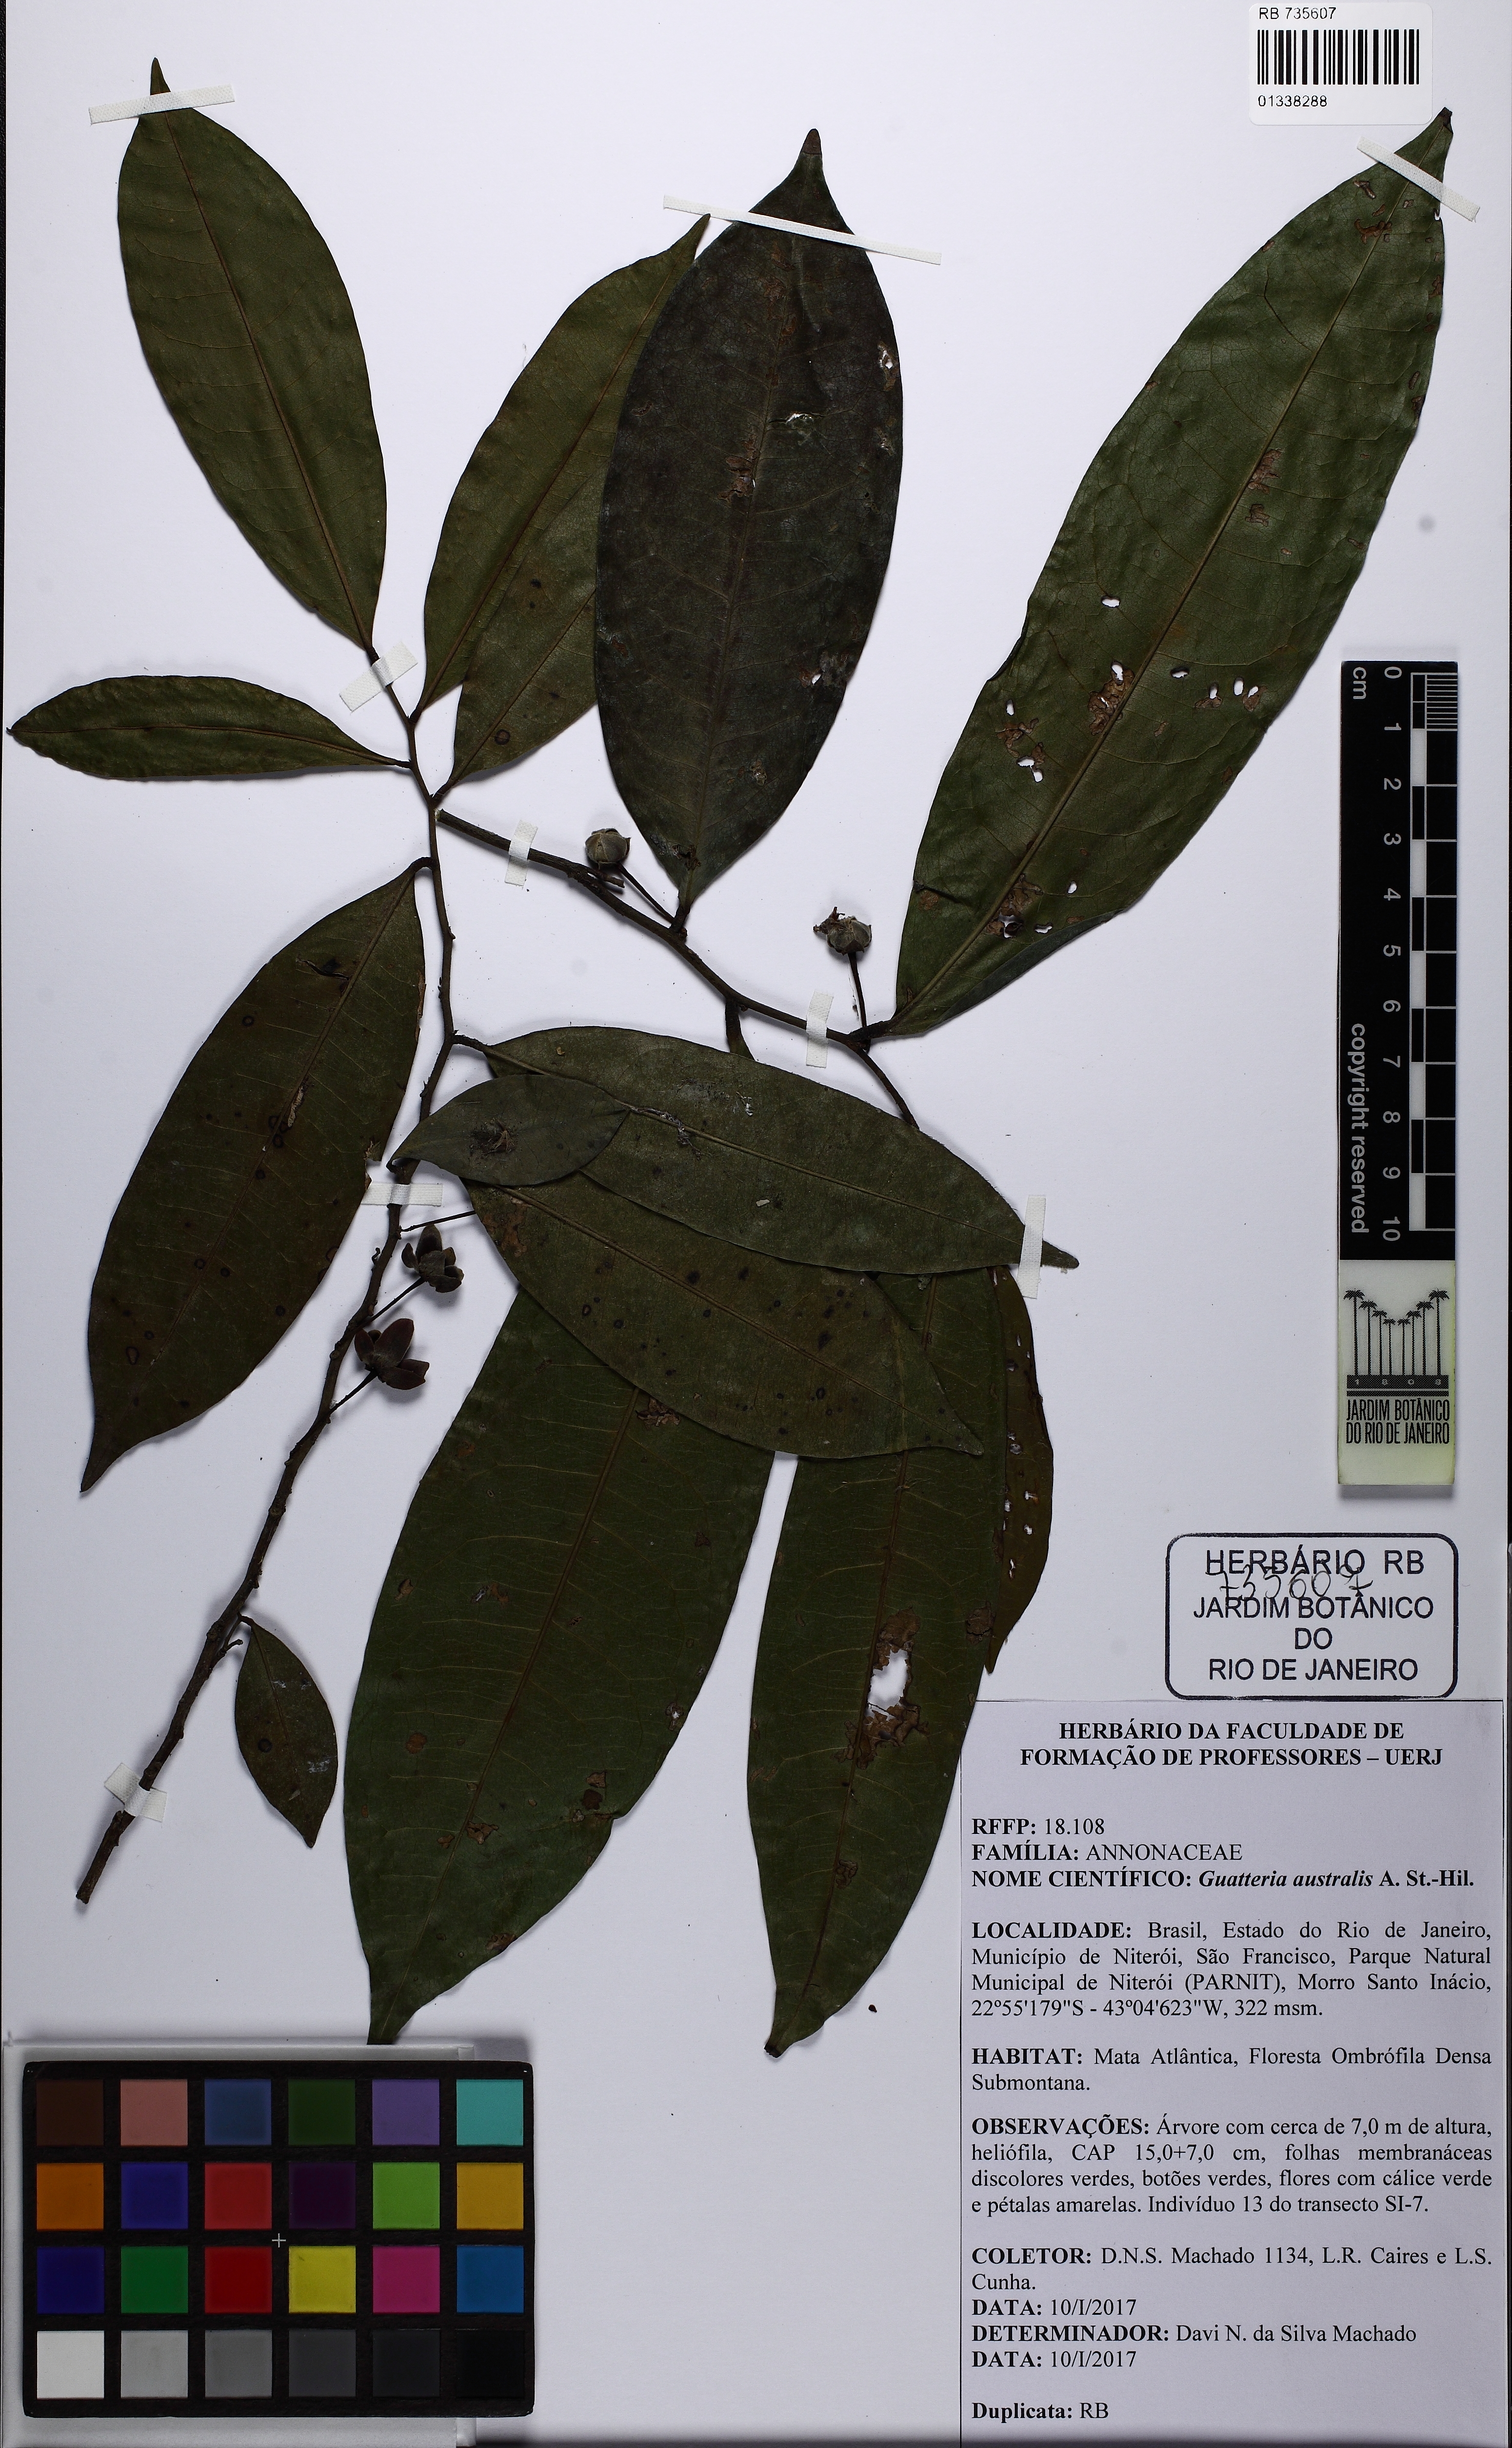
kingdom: Plantae
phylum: Tracheophyta
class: Magnoliopsida
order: Magnoliales
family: Annonaceae
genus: Guatteria
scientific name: Guatteria australis
